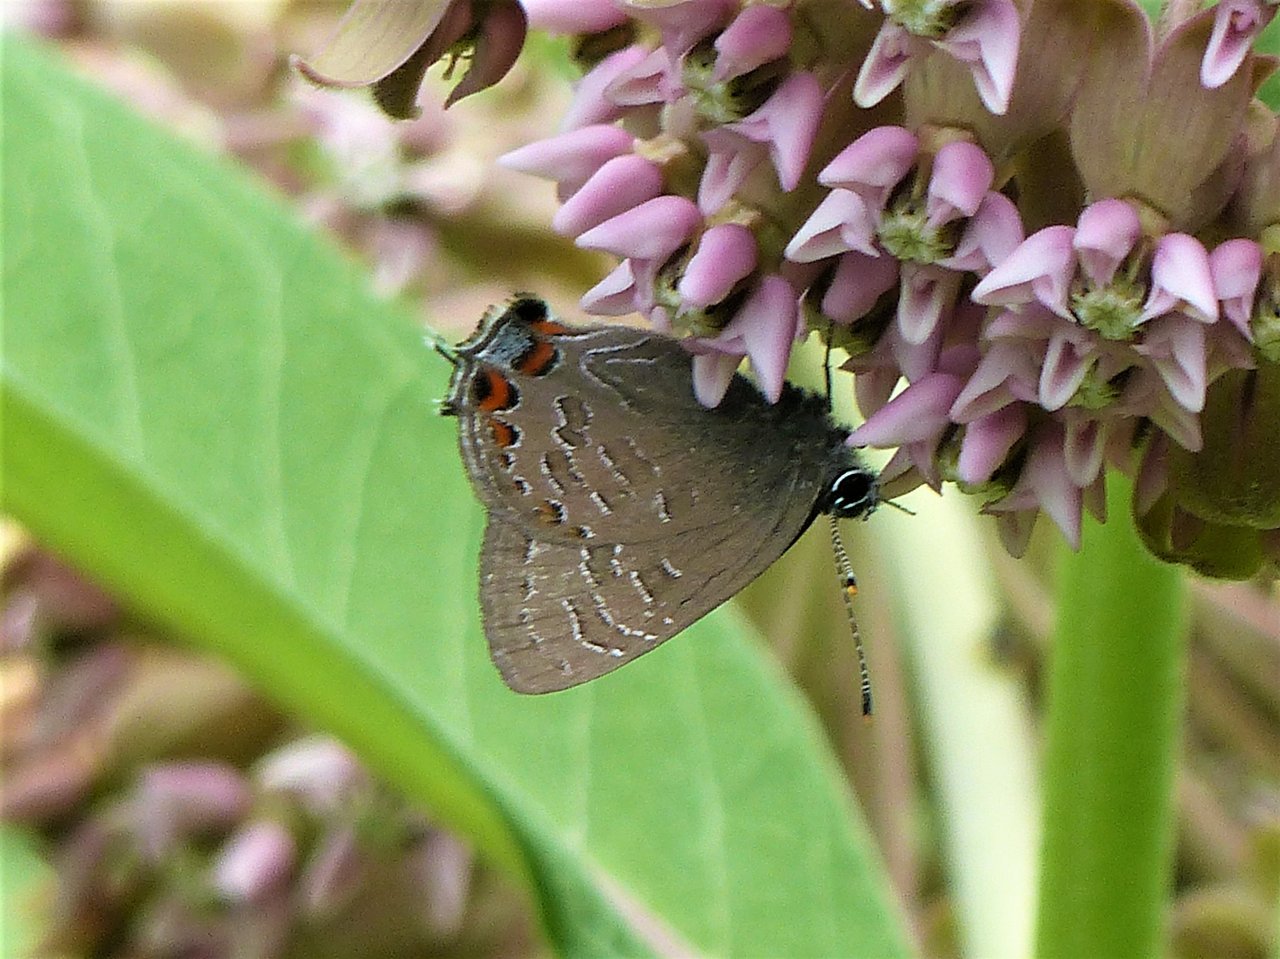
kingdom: Animalia
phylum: Arthropoda
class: Insecta
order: Lepidoptera
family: Lycaenidae
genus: Satyrium
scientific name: Satyrium liparops
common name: Striped Hairstreak
